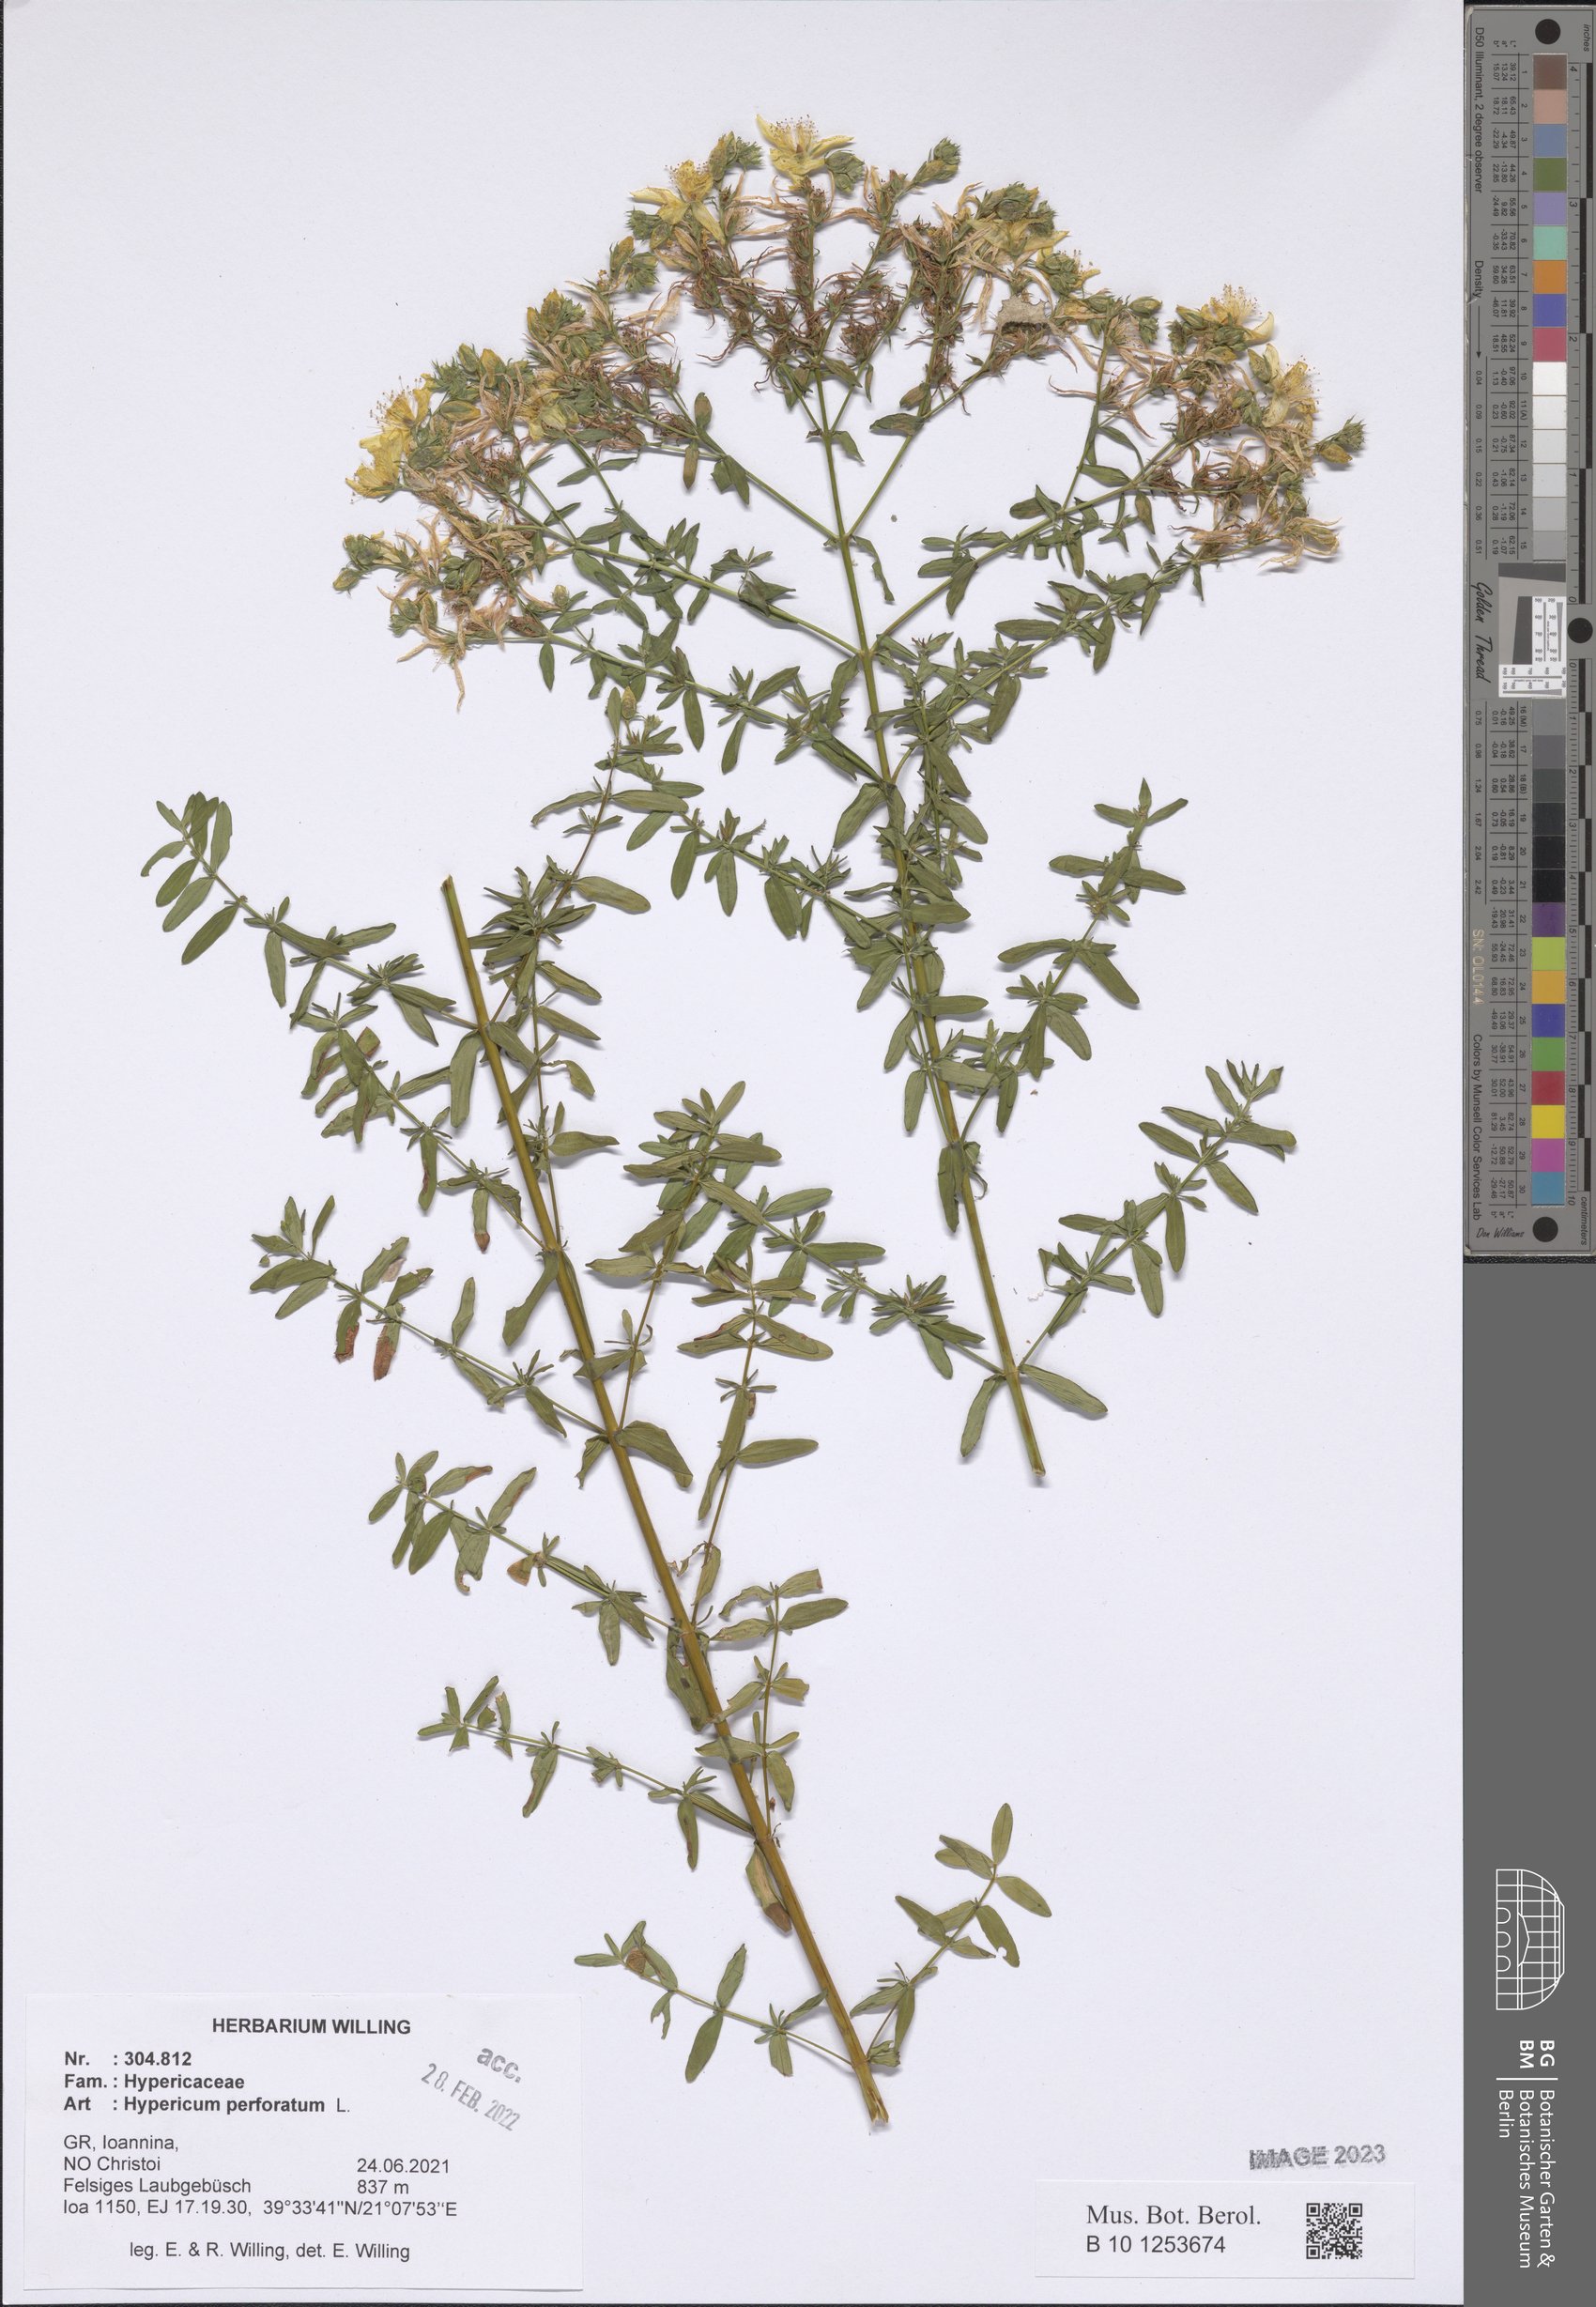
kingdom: Plantae
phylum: Tracheophyta
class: Magnoliopsida
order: Malpighiales
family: Hypericaceae
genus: Hypericum
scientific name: Hypericum perforatum
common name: Common st. johnswort
